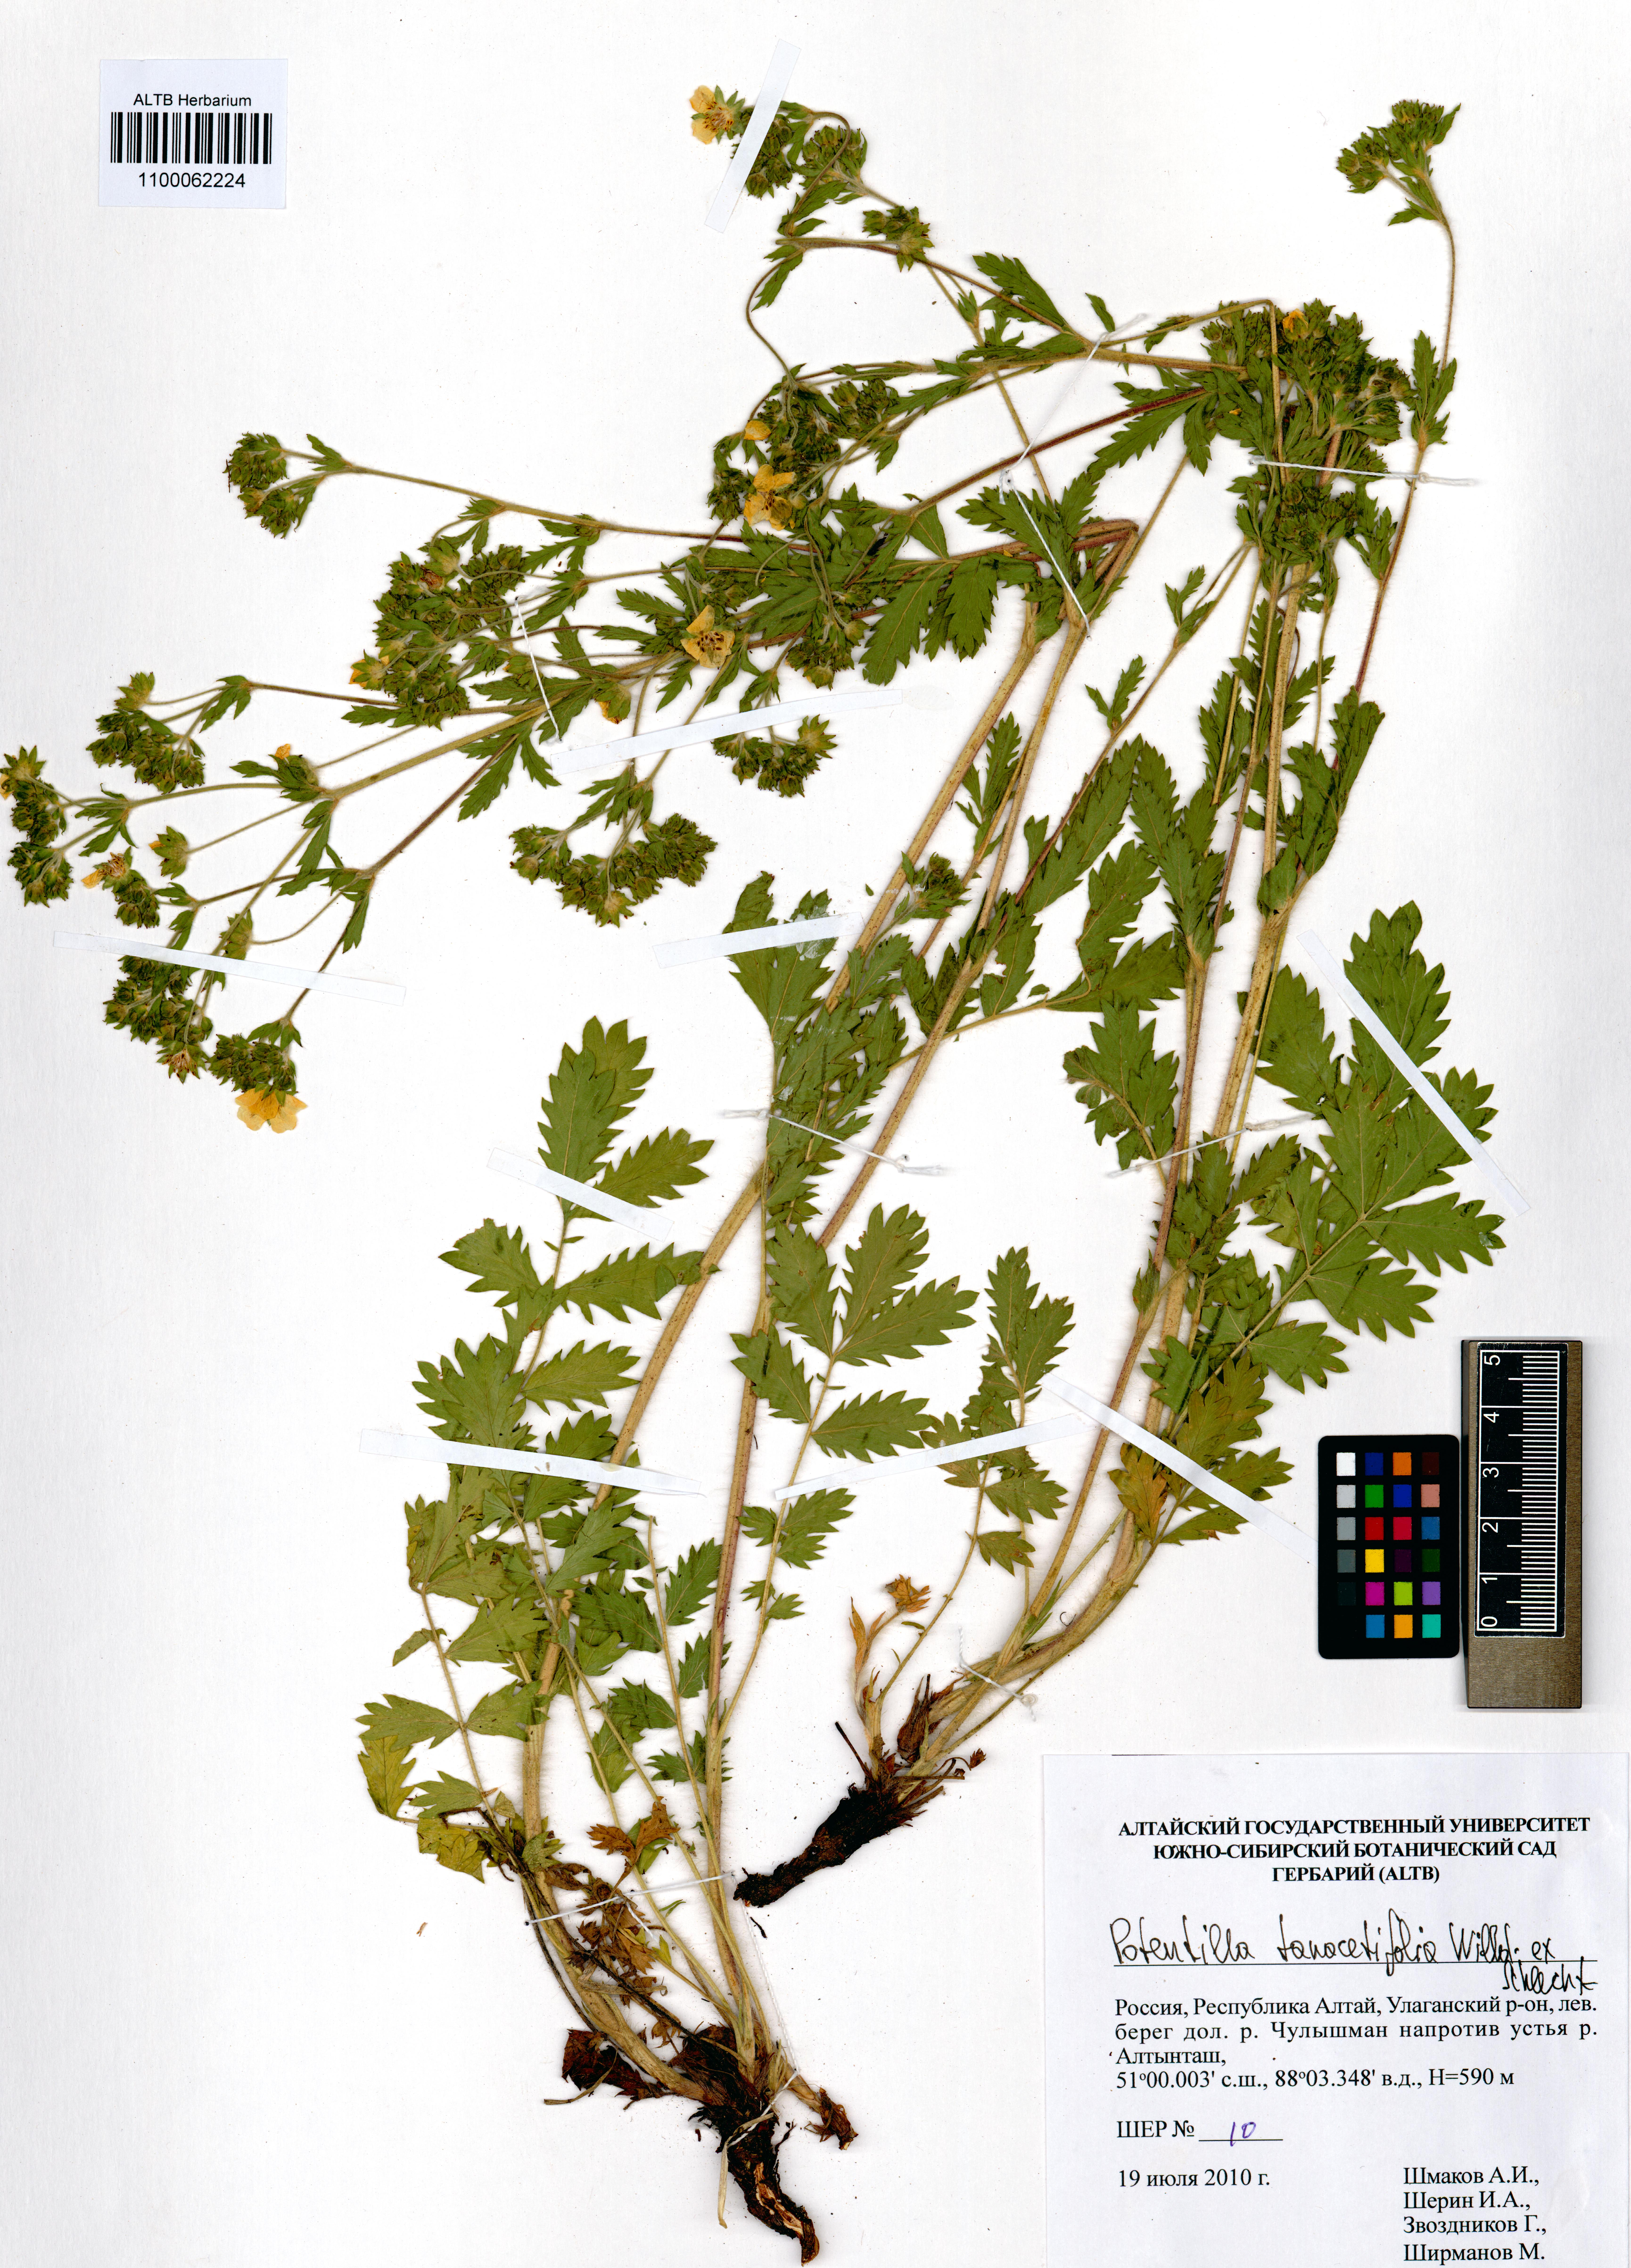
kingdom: Plantae
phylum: Tracheophyta
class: Magnoliopsida
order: Rosales
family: Rosaceae
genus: Potentilla
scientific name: Potentilla tanacetifolia
